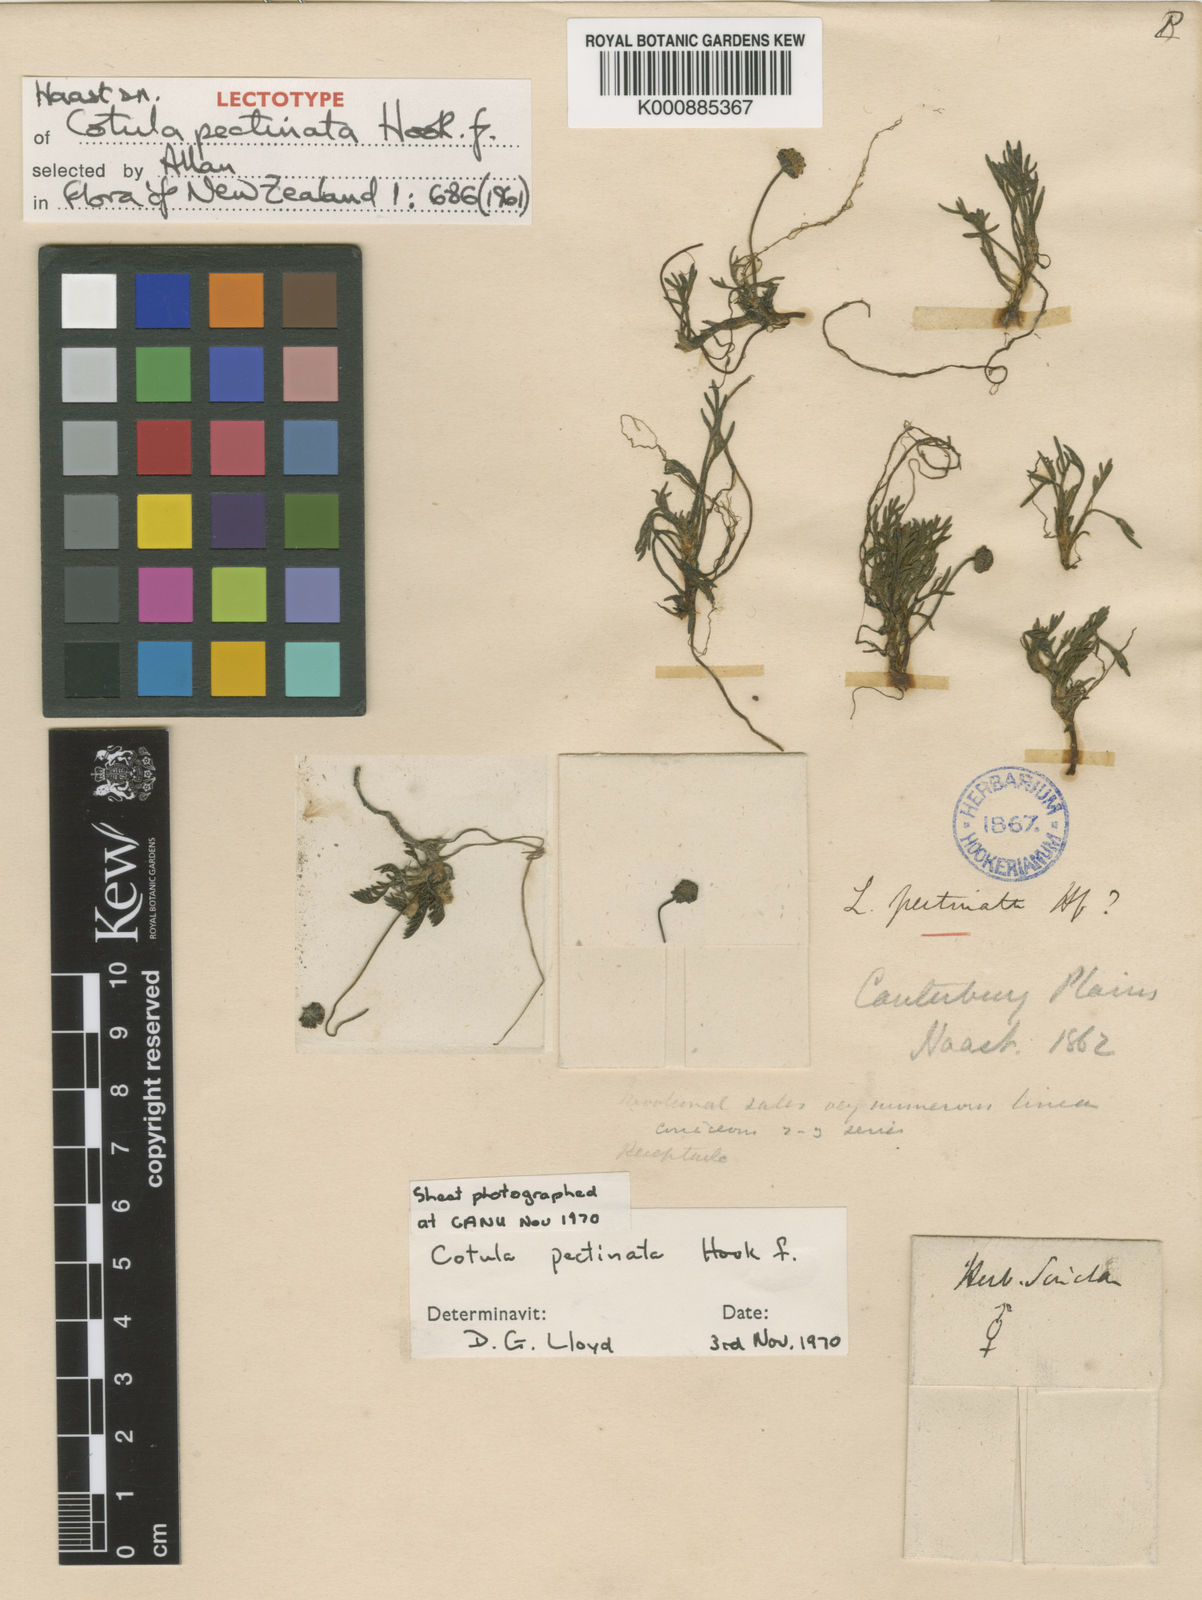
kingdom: Plantae
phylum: Tracheophyta
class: Magnoliopsida
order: Asterales
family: Asteraceae
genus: Leptinella
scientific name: Leptinella
